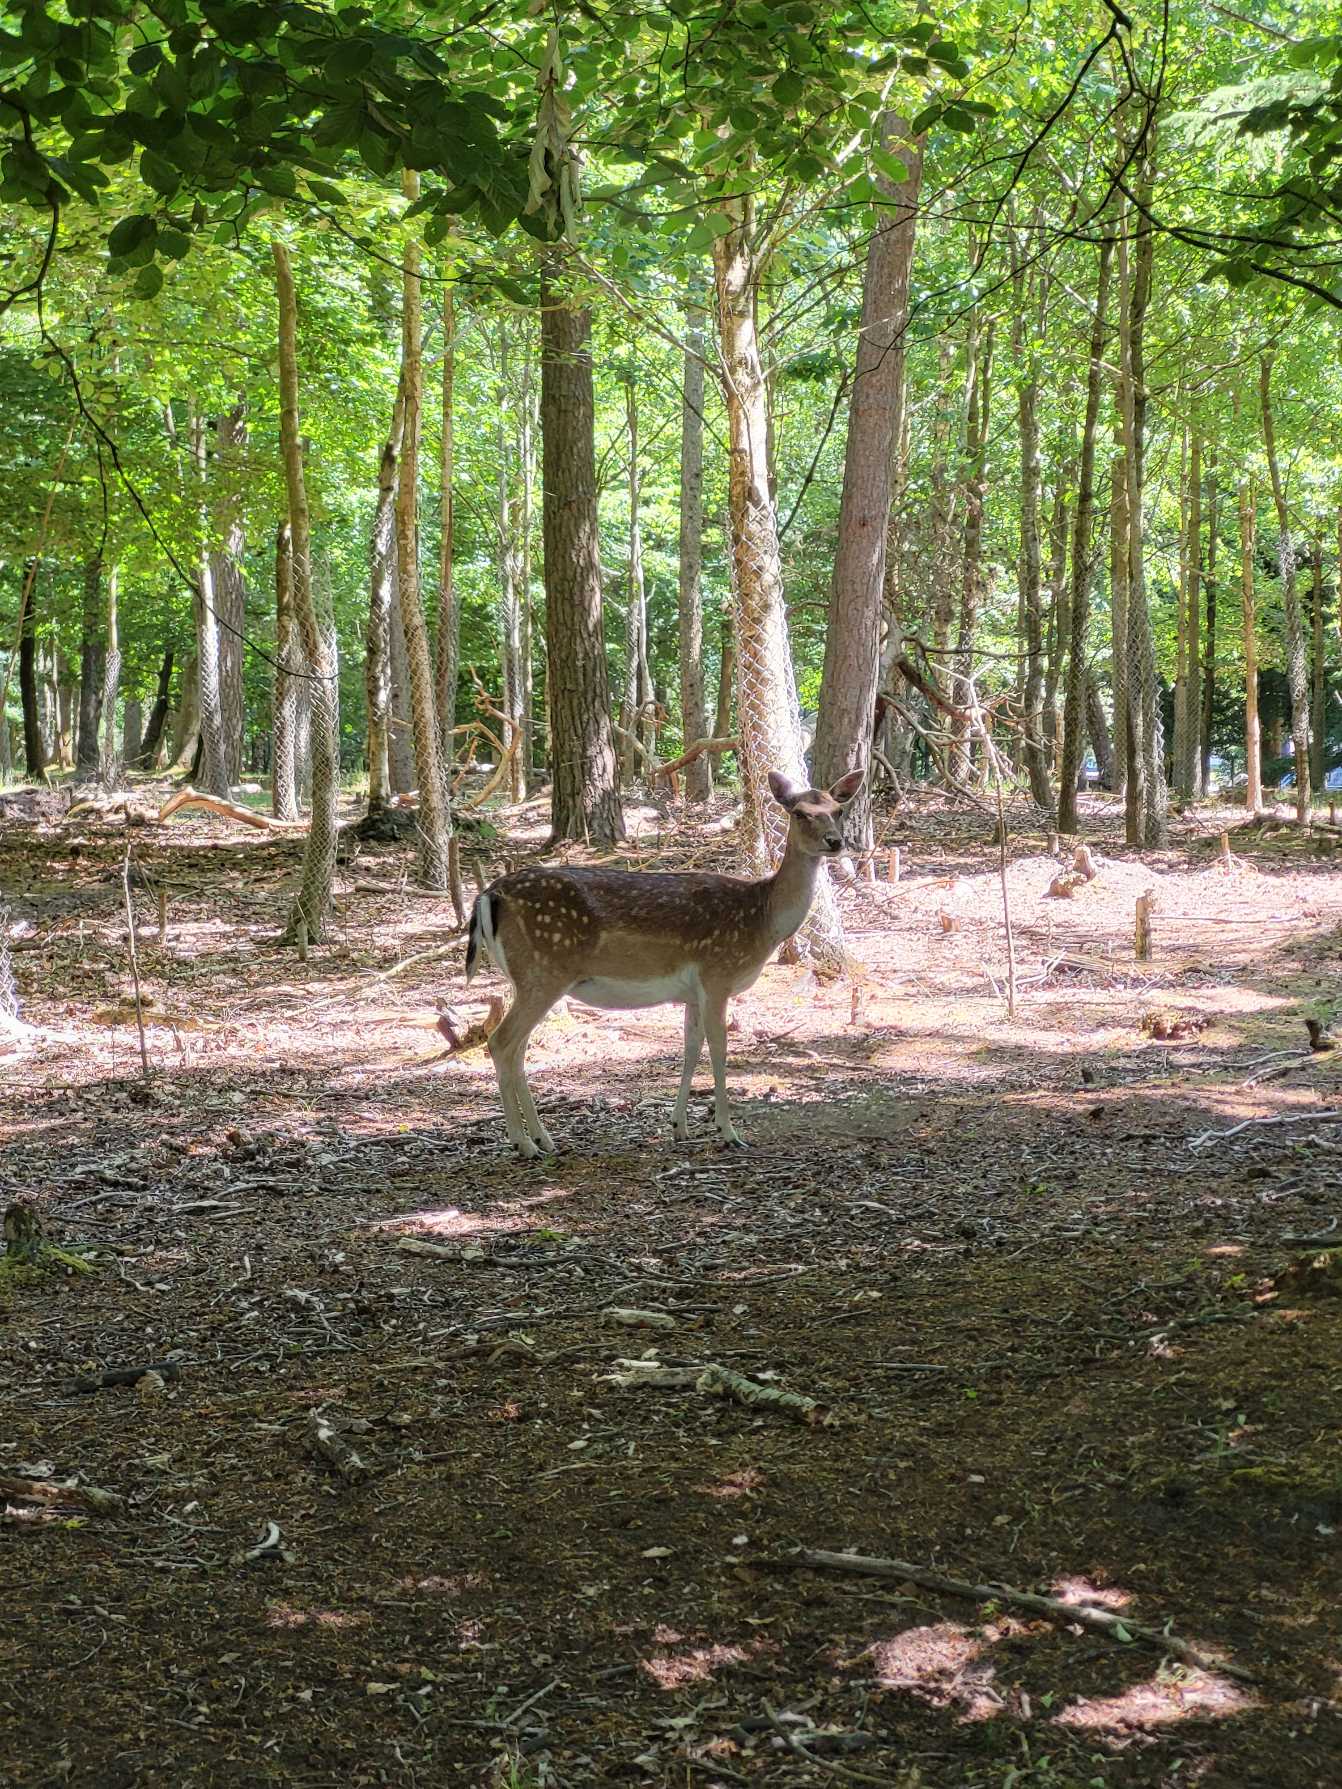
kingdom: Animalia
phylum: Chordata
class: Mammalia
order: Artiodactyla
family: Cervidae
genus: Dama
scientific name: Dama dama
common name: Dådyr
